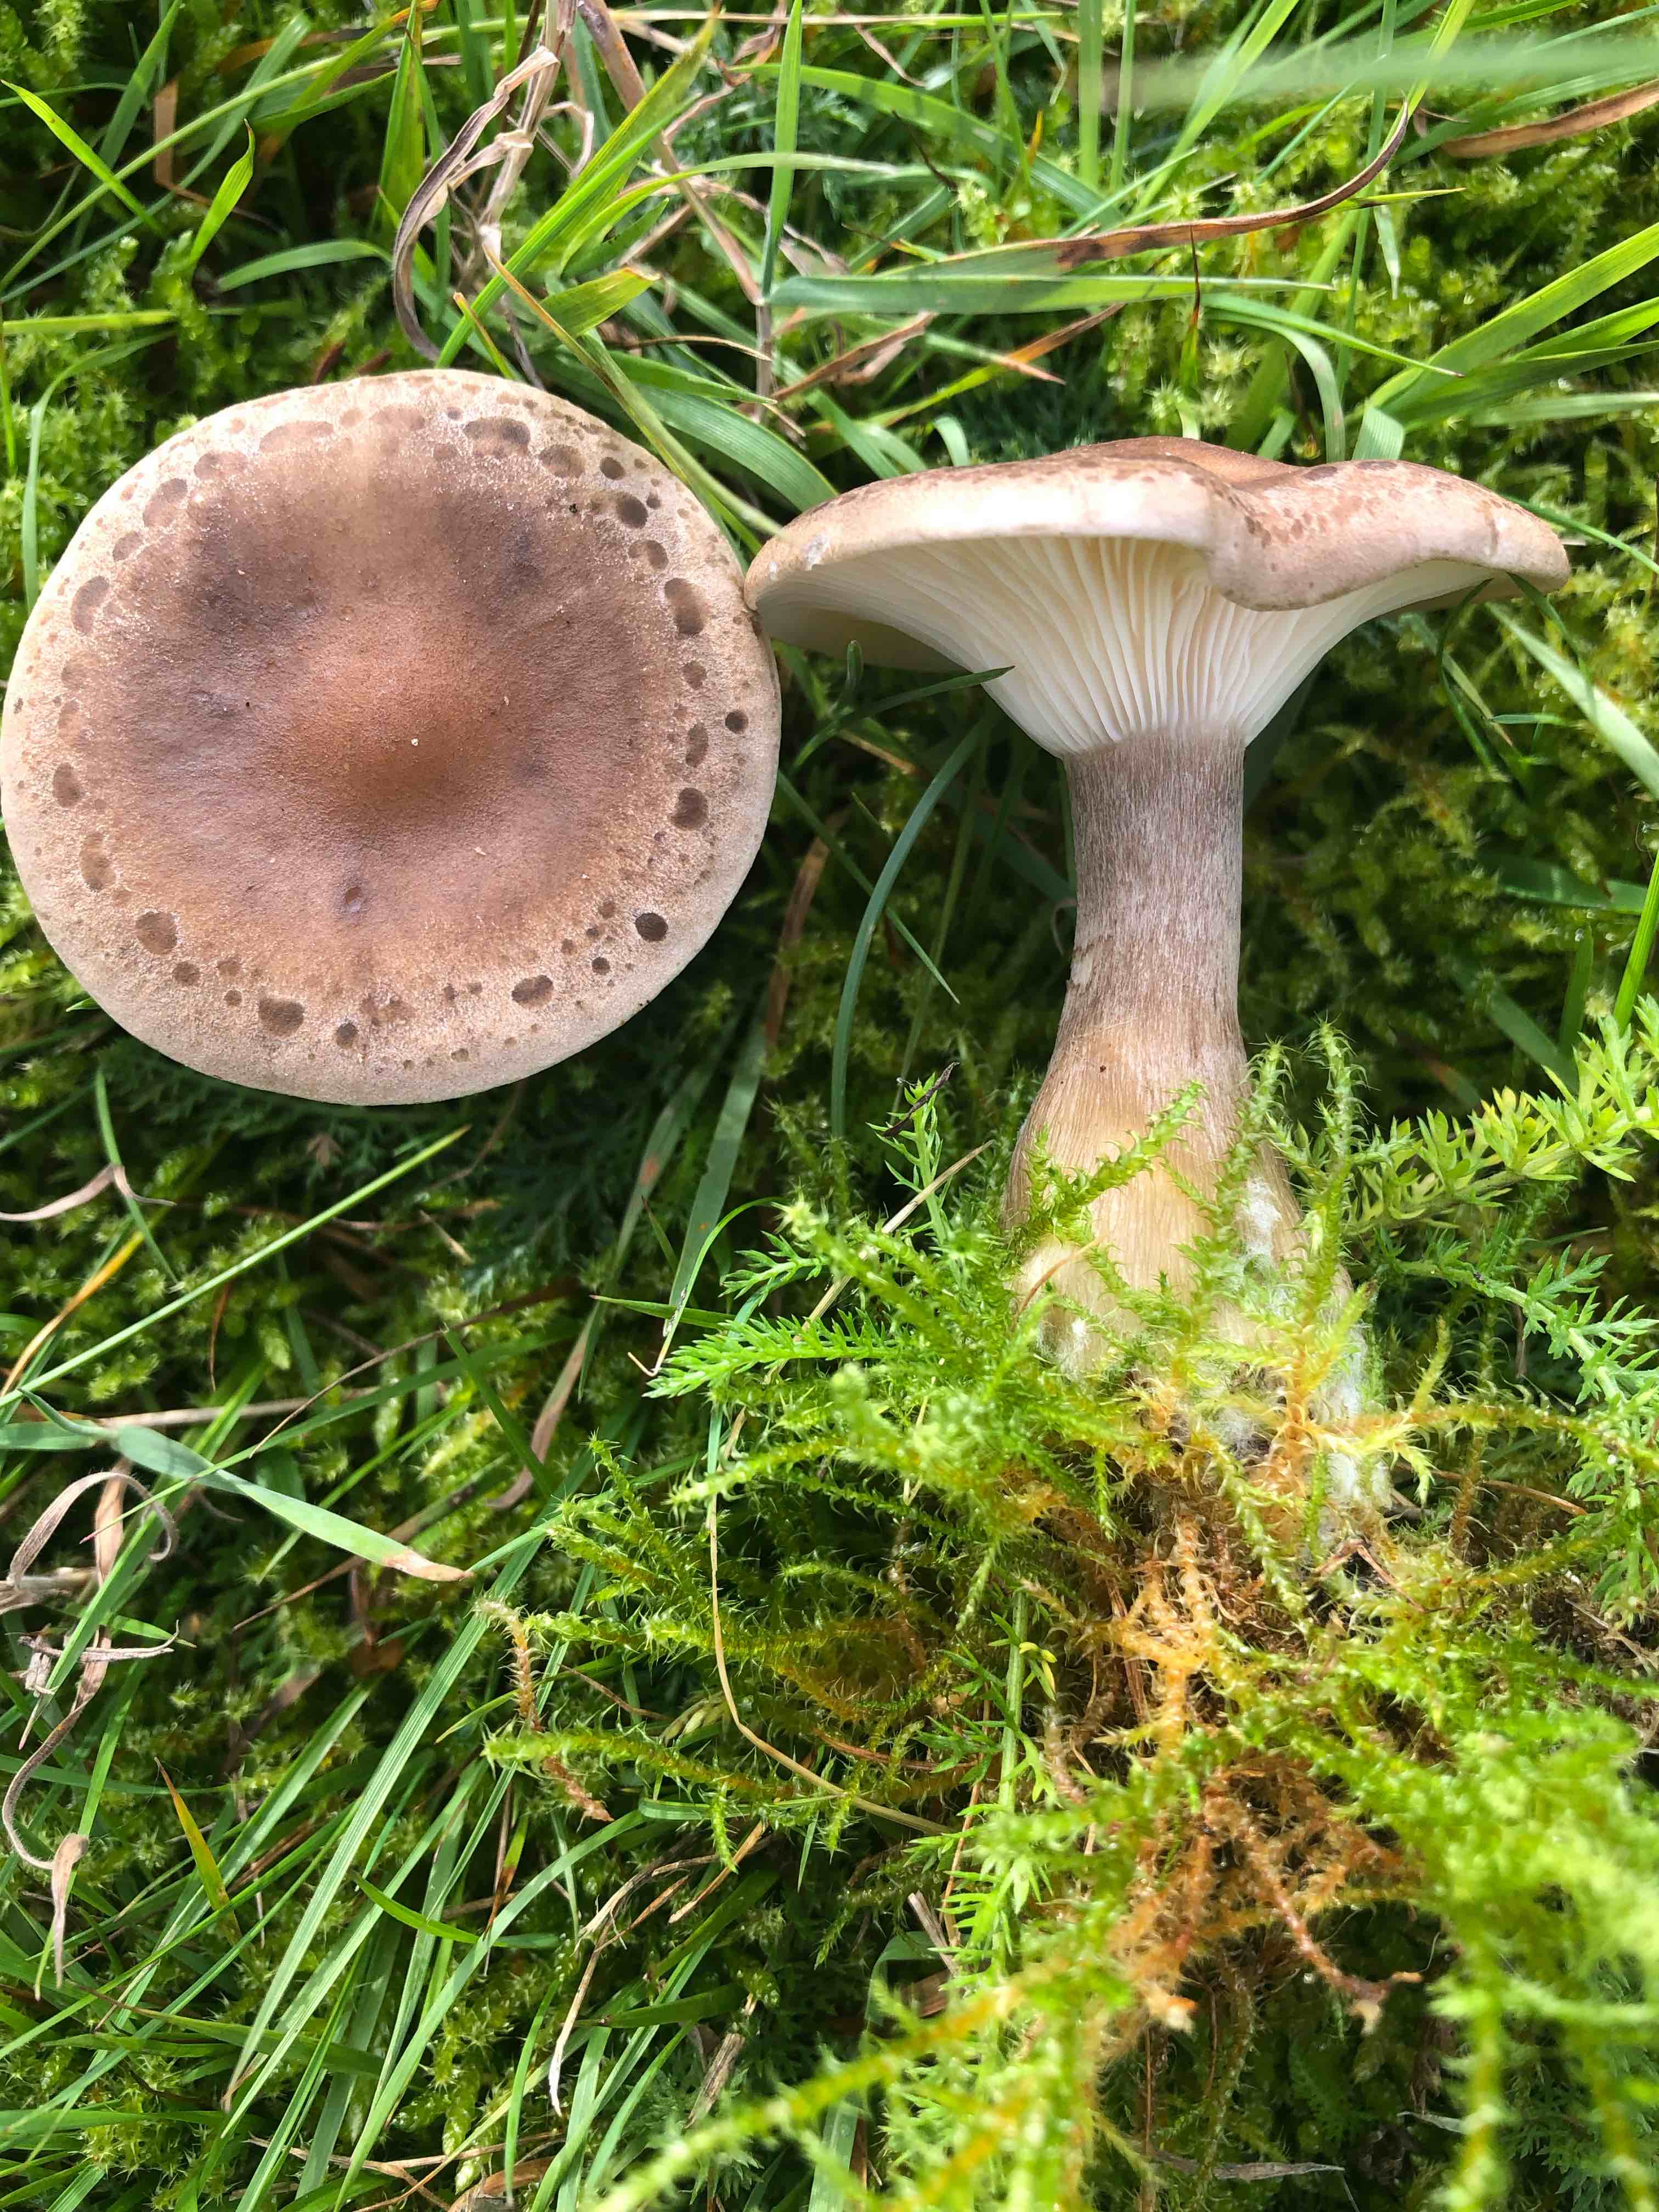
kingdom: Fungi
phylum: Basidiomycota
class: Agaricomycetes
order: Agaricales
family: Hygrophoraceae
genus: Ampulloclitocybe
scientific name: Ampulloclitocybe clavipes
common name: køllefod
